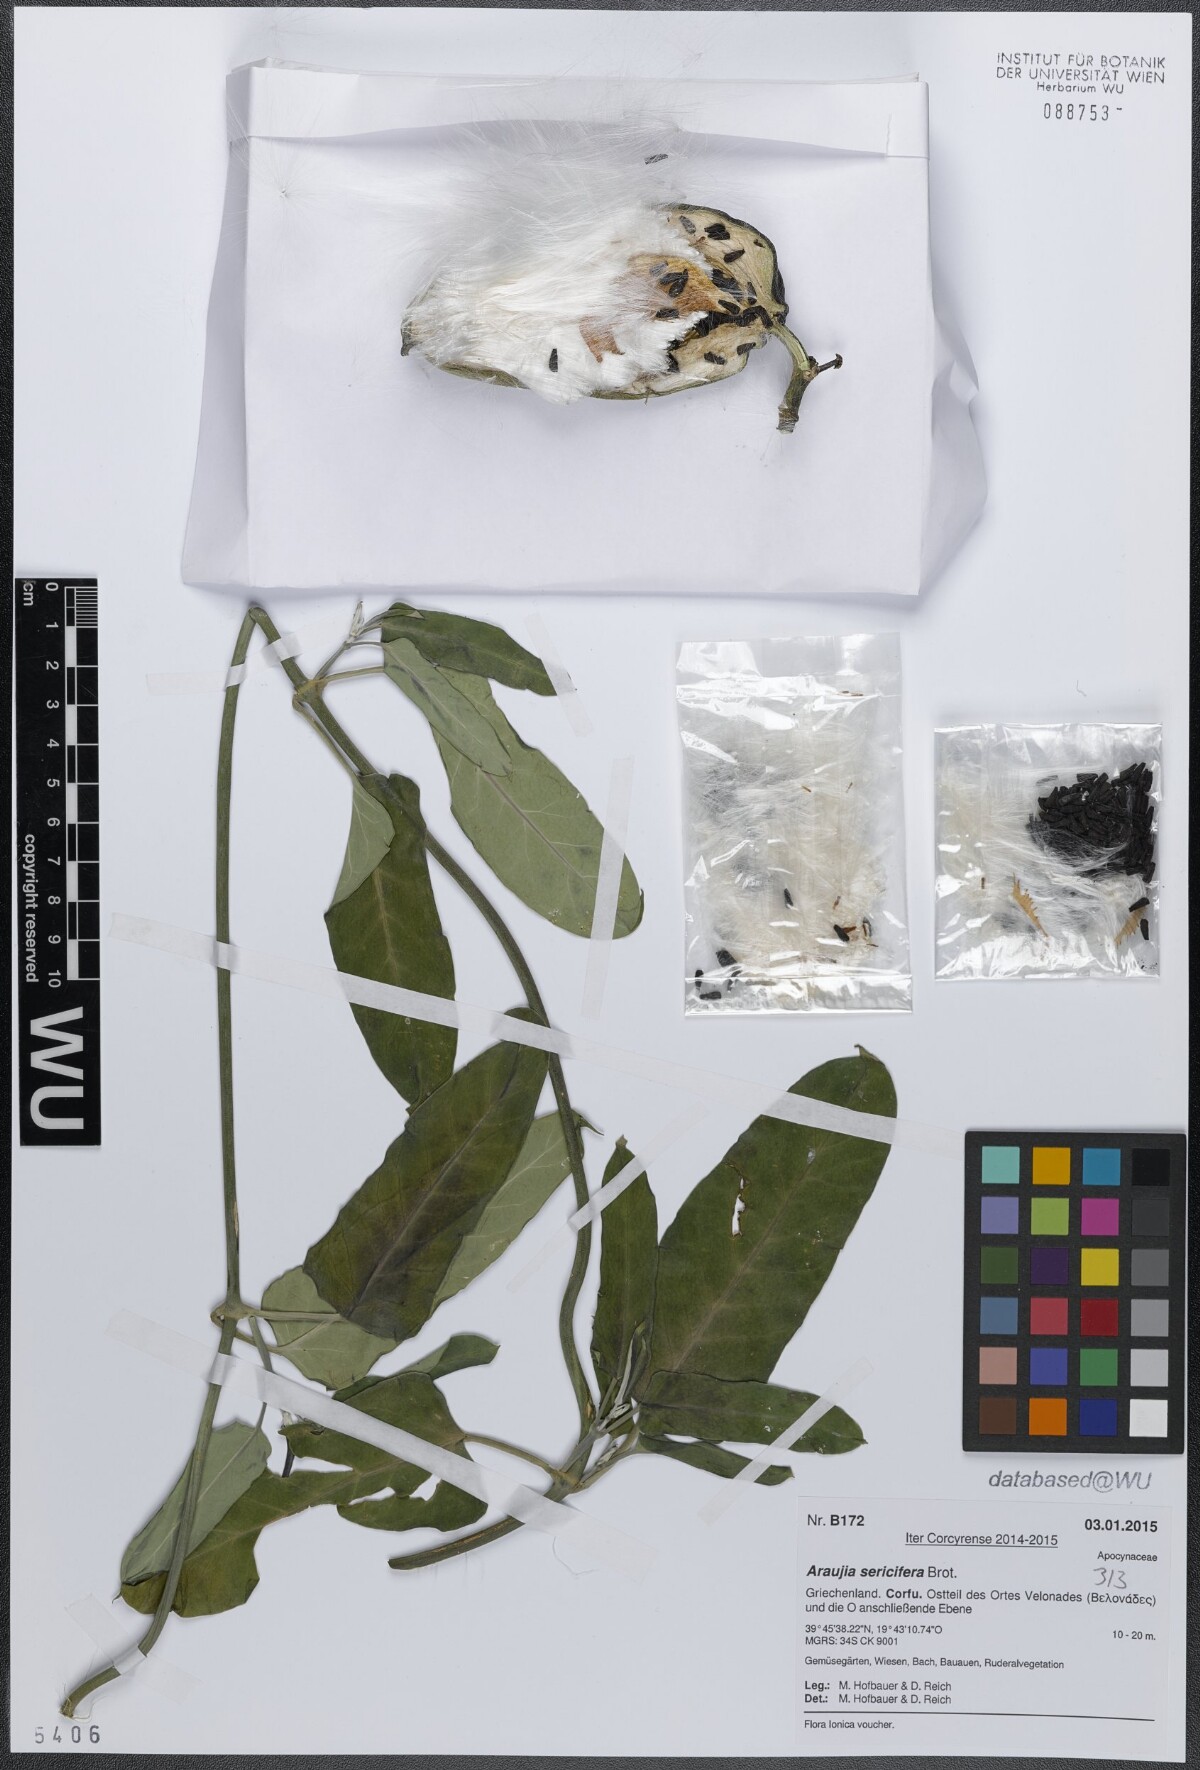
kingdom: Plantae
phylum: Tracheophyta
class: Magnoliopsida
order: Gentianales
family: Apocynaceae
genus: Araujia
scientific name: Araujia sericifera
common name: White bladderflower
